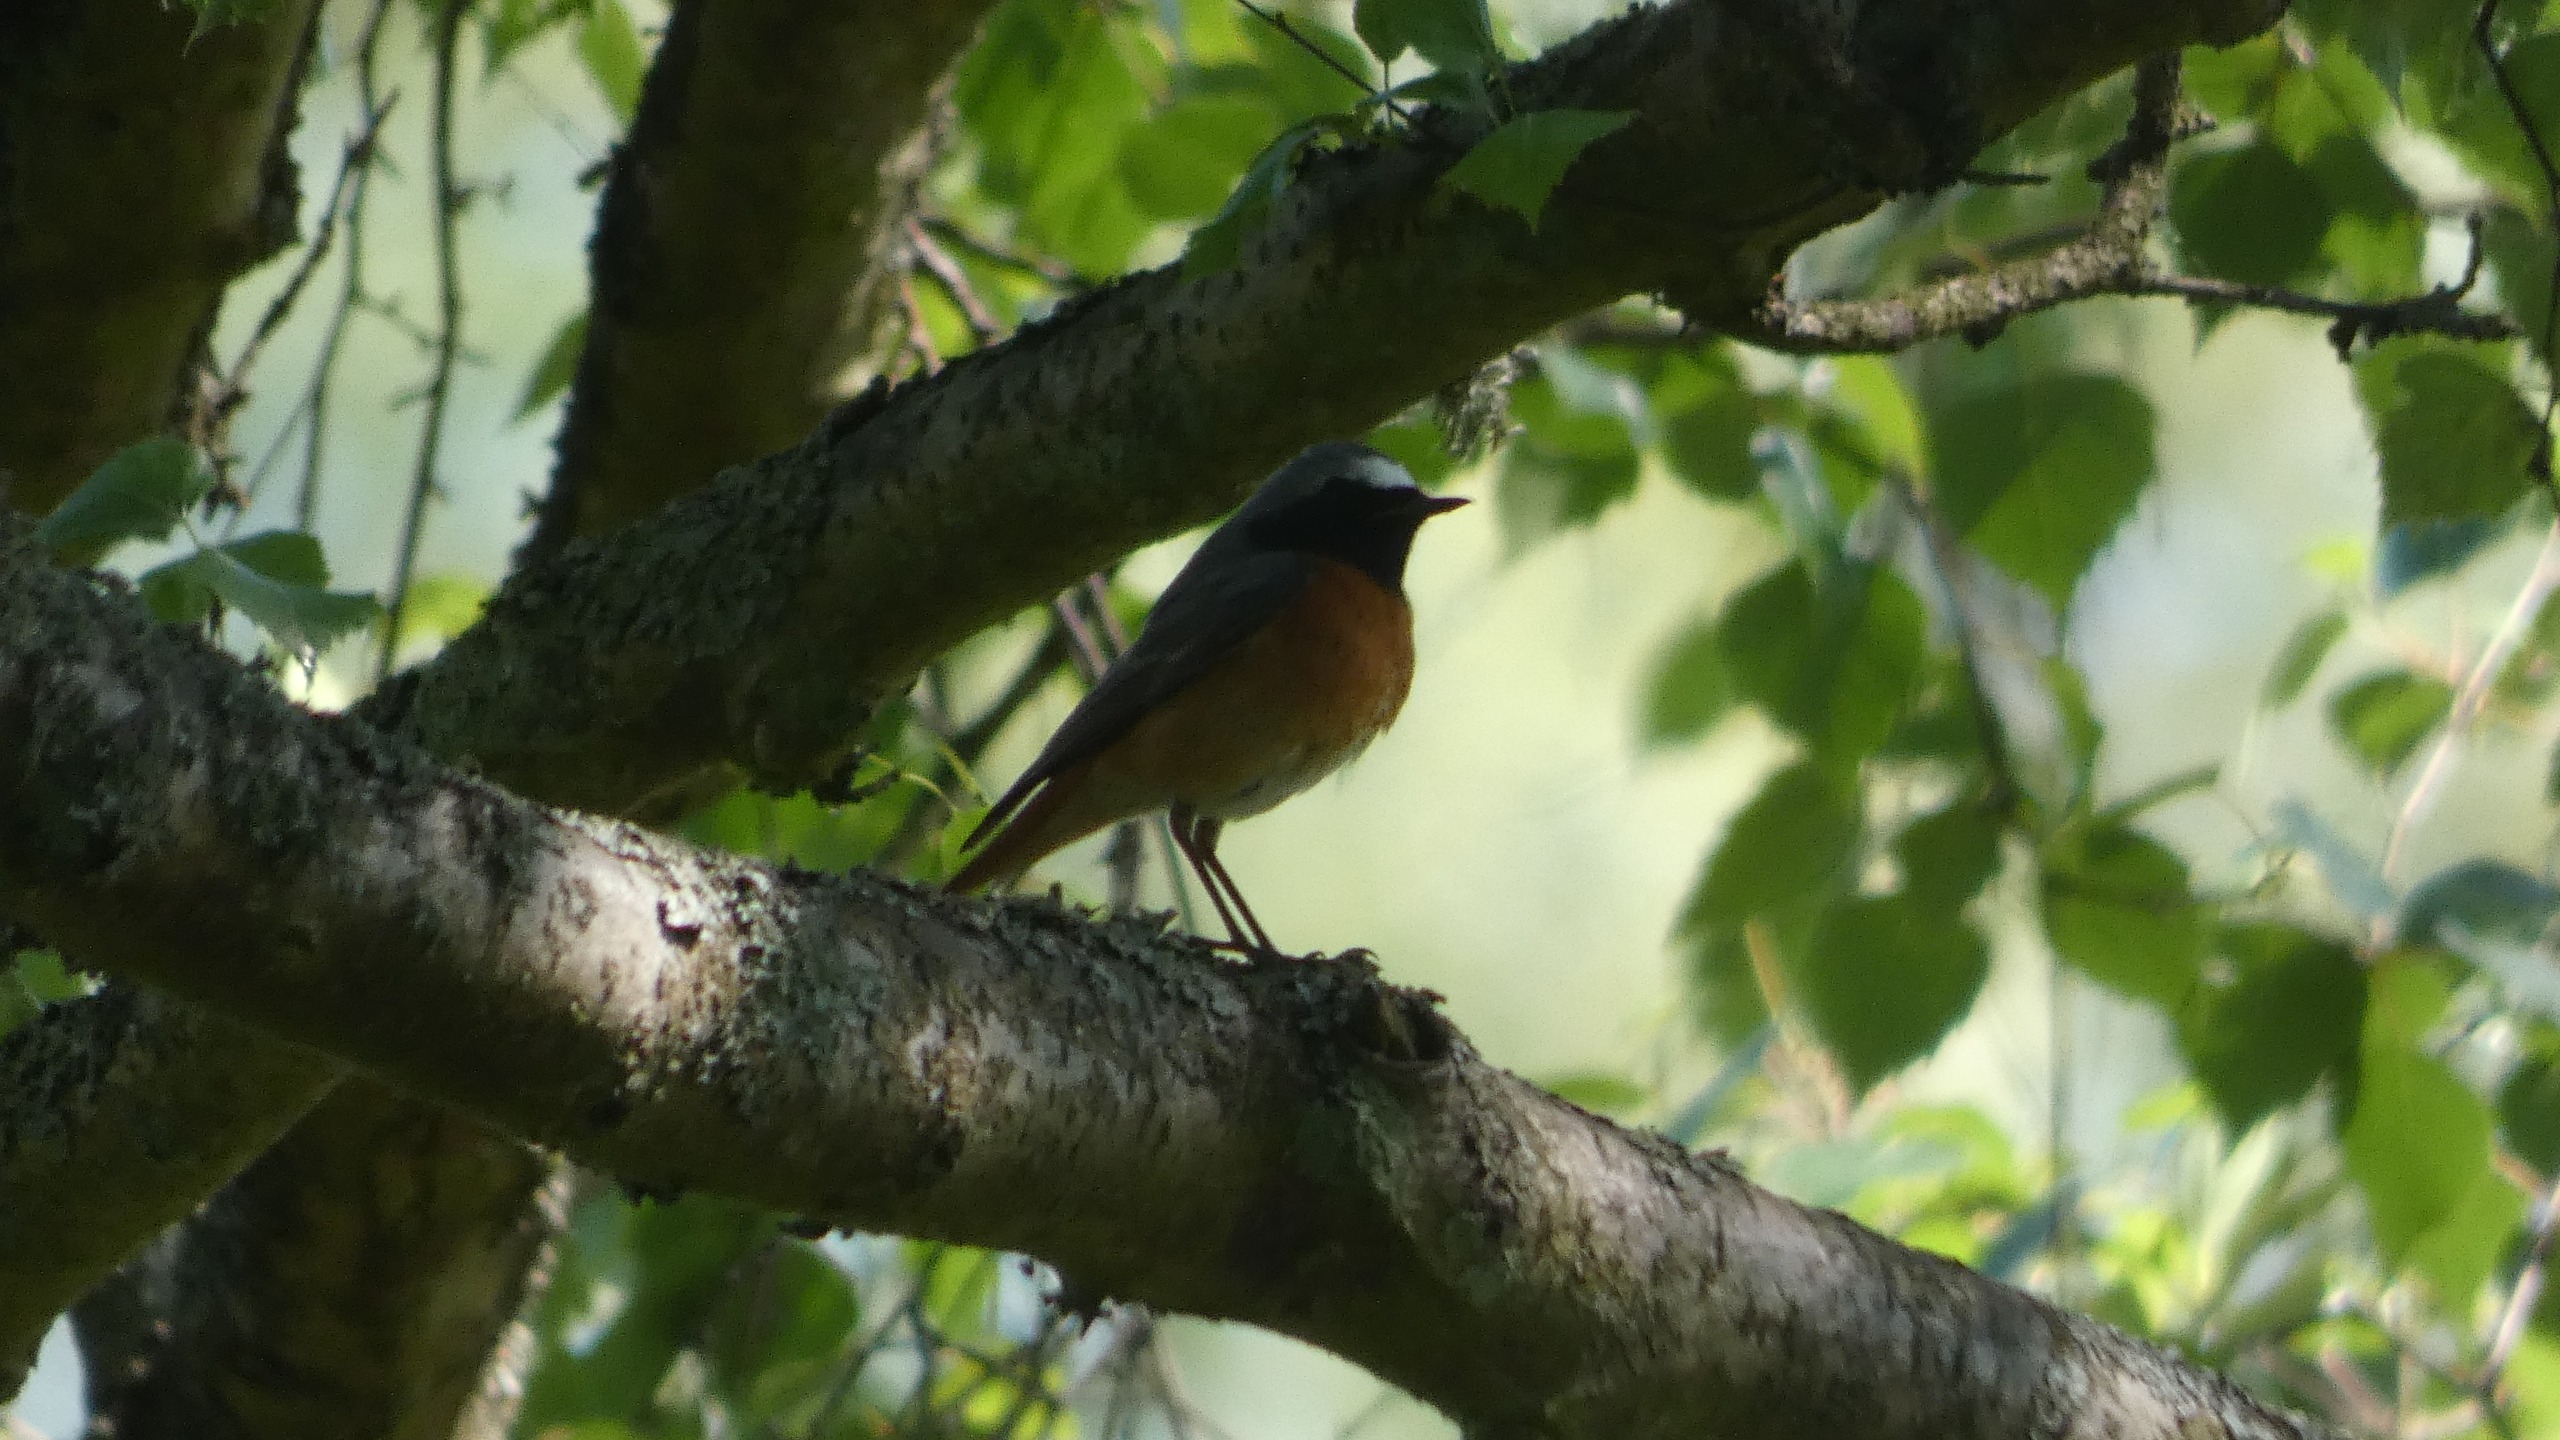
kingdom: Animalia
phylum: Chordata
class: Aves
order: Passeriformes
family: Muscicapidae
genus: Phoenicurus
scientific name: Phoenicurus phoenicurus
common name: Rødstjert
